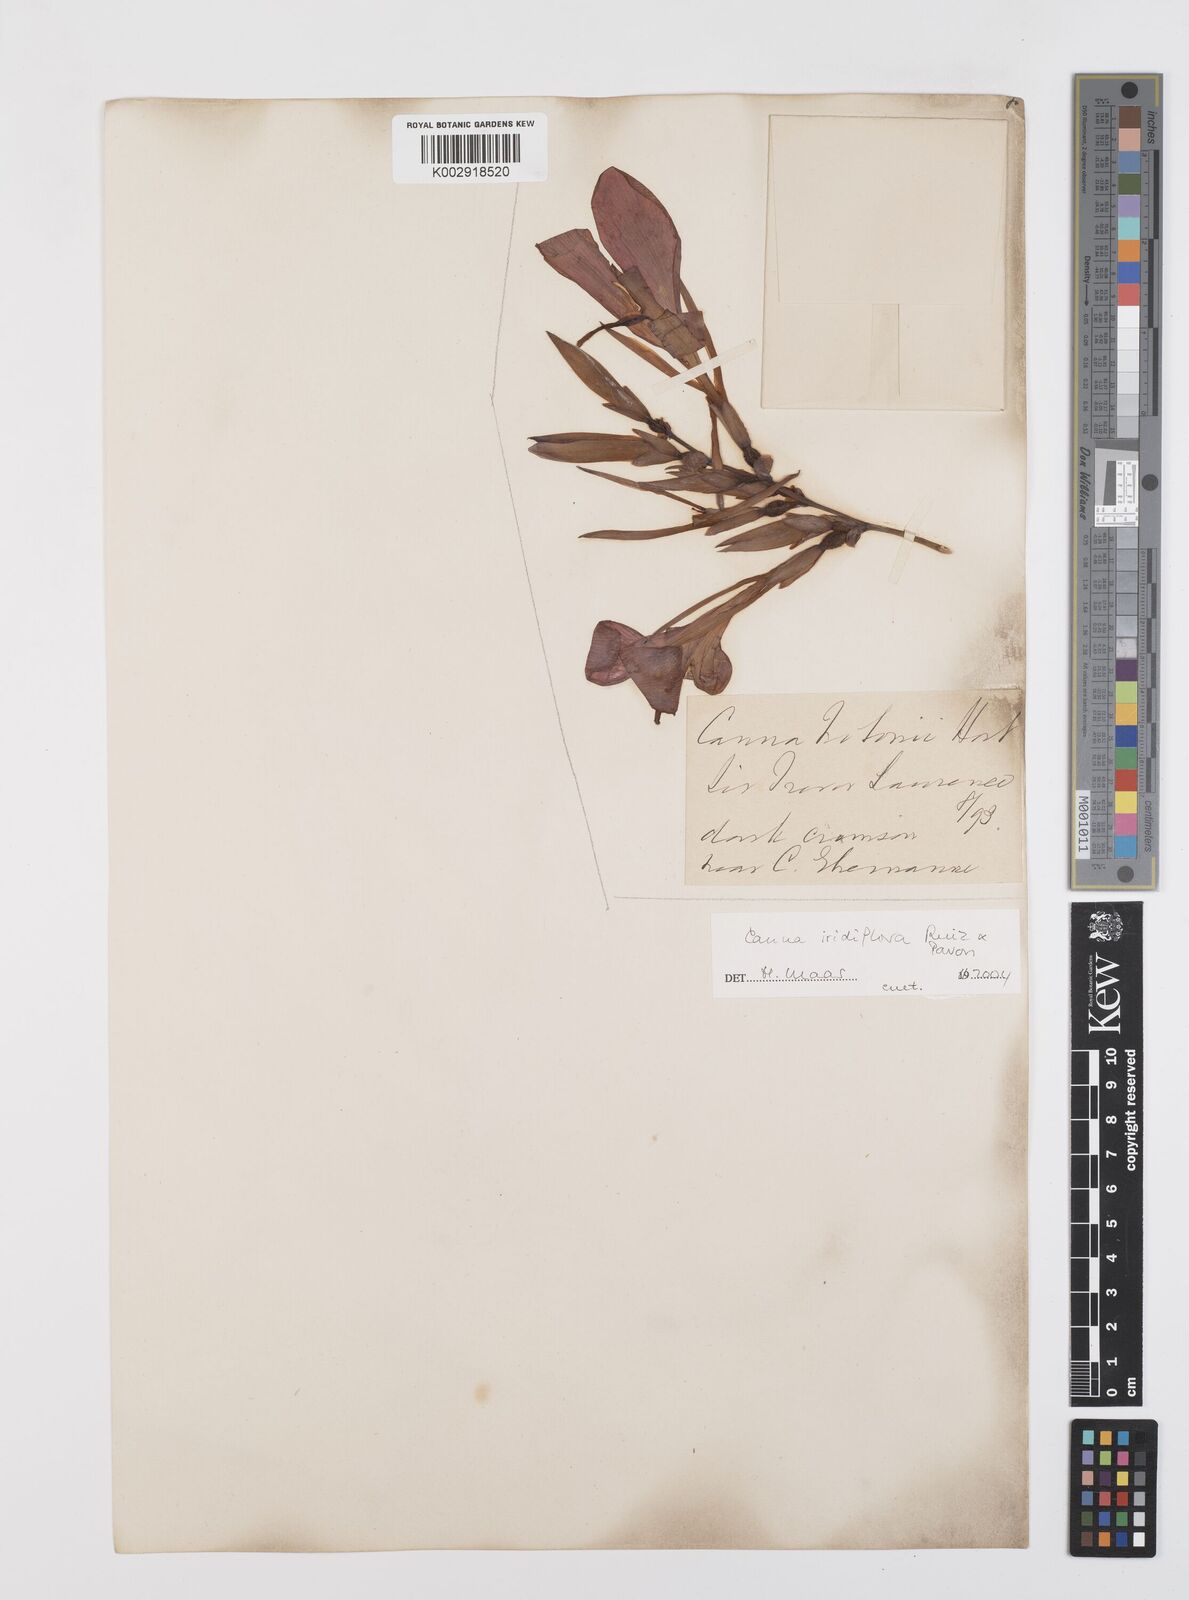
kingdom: Plantae
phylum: Tracheophyta
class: Liliopsida
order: Zingiberales
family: Cannaceae
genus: Canna
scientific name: Canna iridiflora
